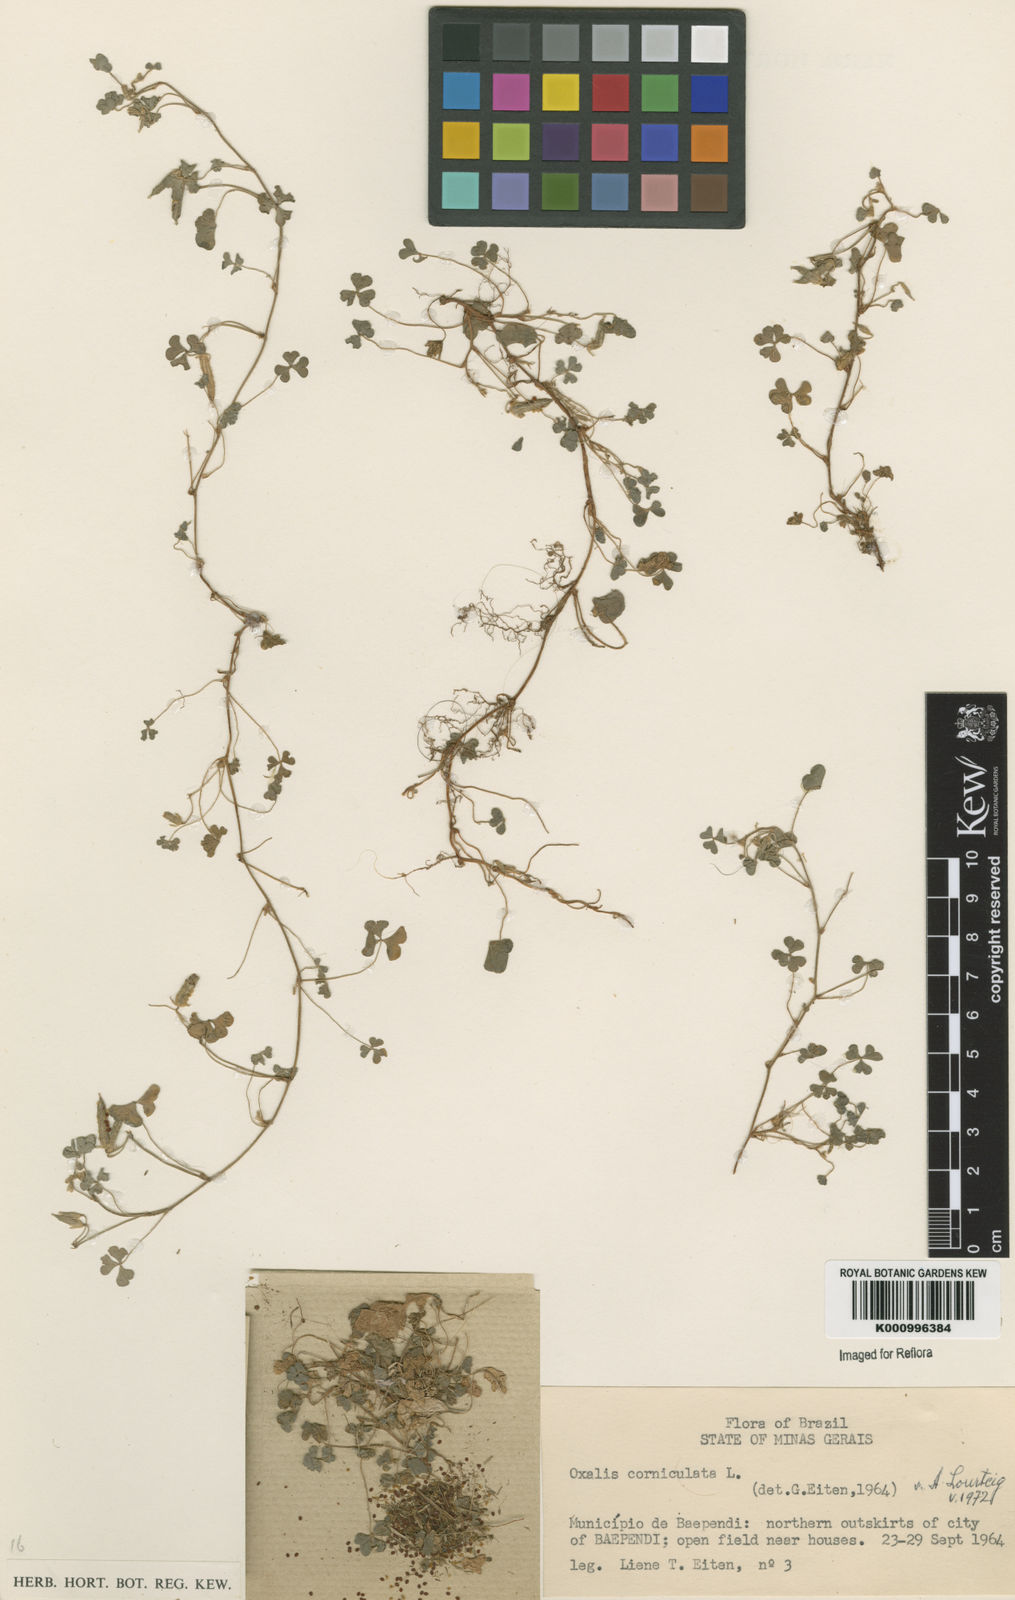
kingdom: Plantae
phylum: Tracheophyta
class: Magnoliopsida
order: Oxalidales
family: Oxalidaceae
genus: Oxalis
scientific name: Oxalis corniculata
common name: Procumbent yellow-sorrel
